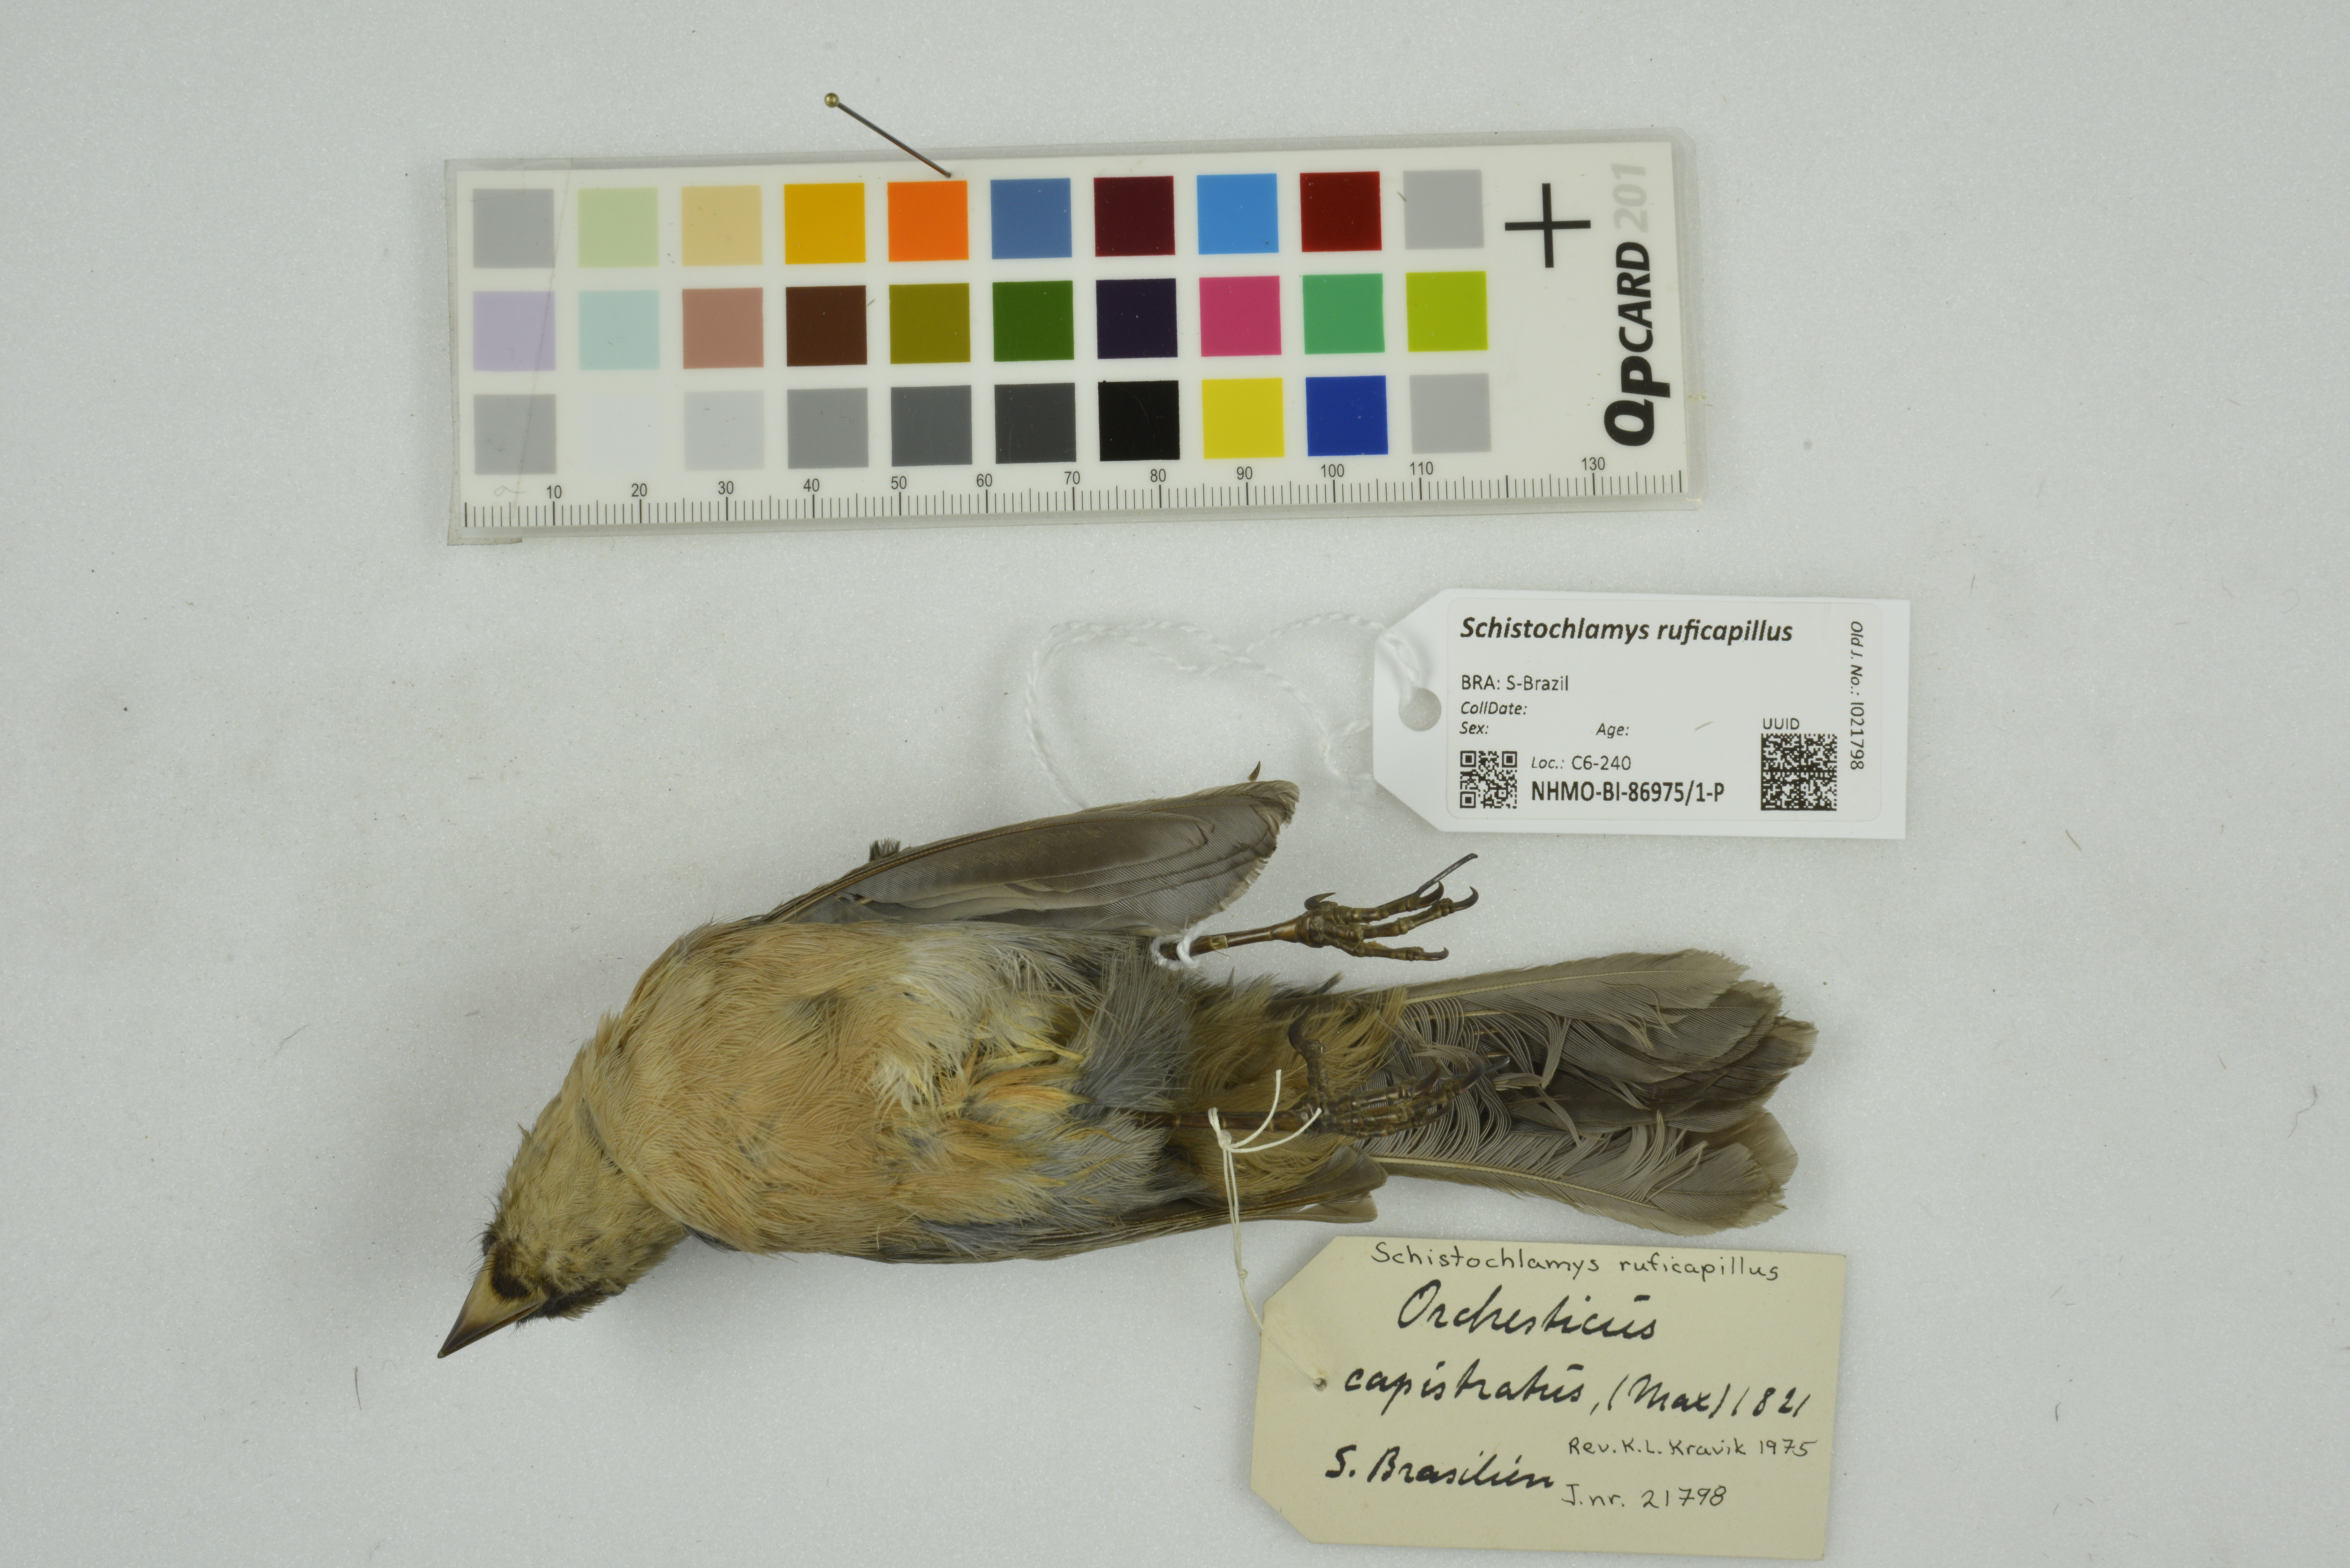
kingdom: Animalia
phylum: Chordata
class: Aves
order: Passeriformes
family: Thraupidae
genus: Schistochlamys
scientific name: Schistochlamys ruficapillus
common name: Cinnamon tanager
